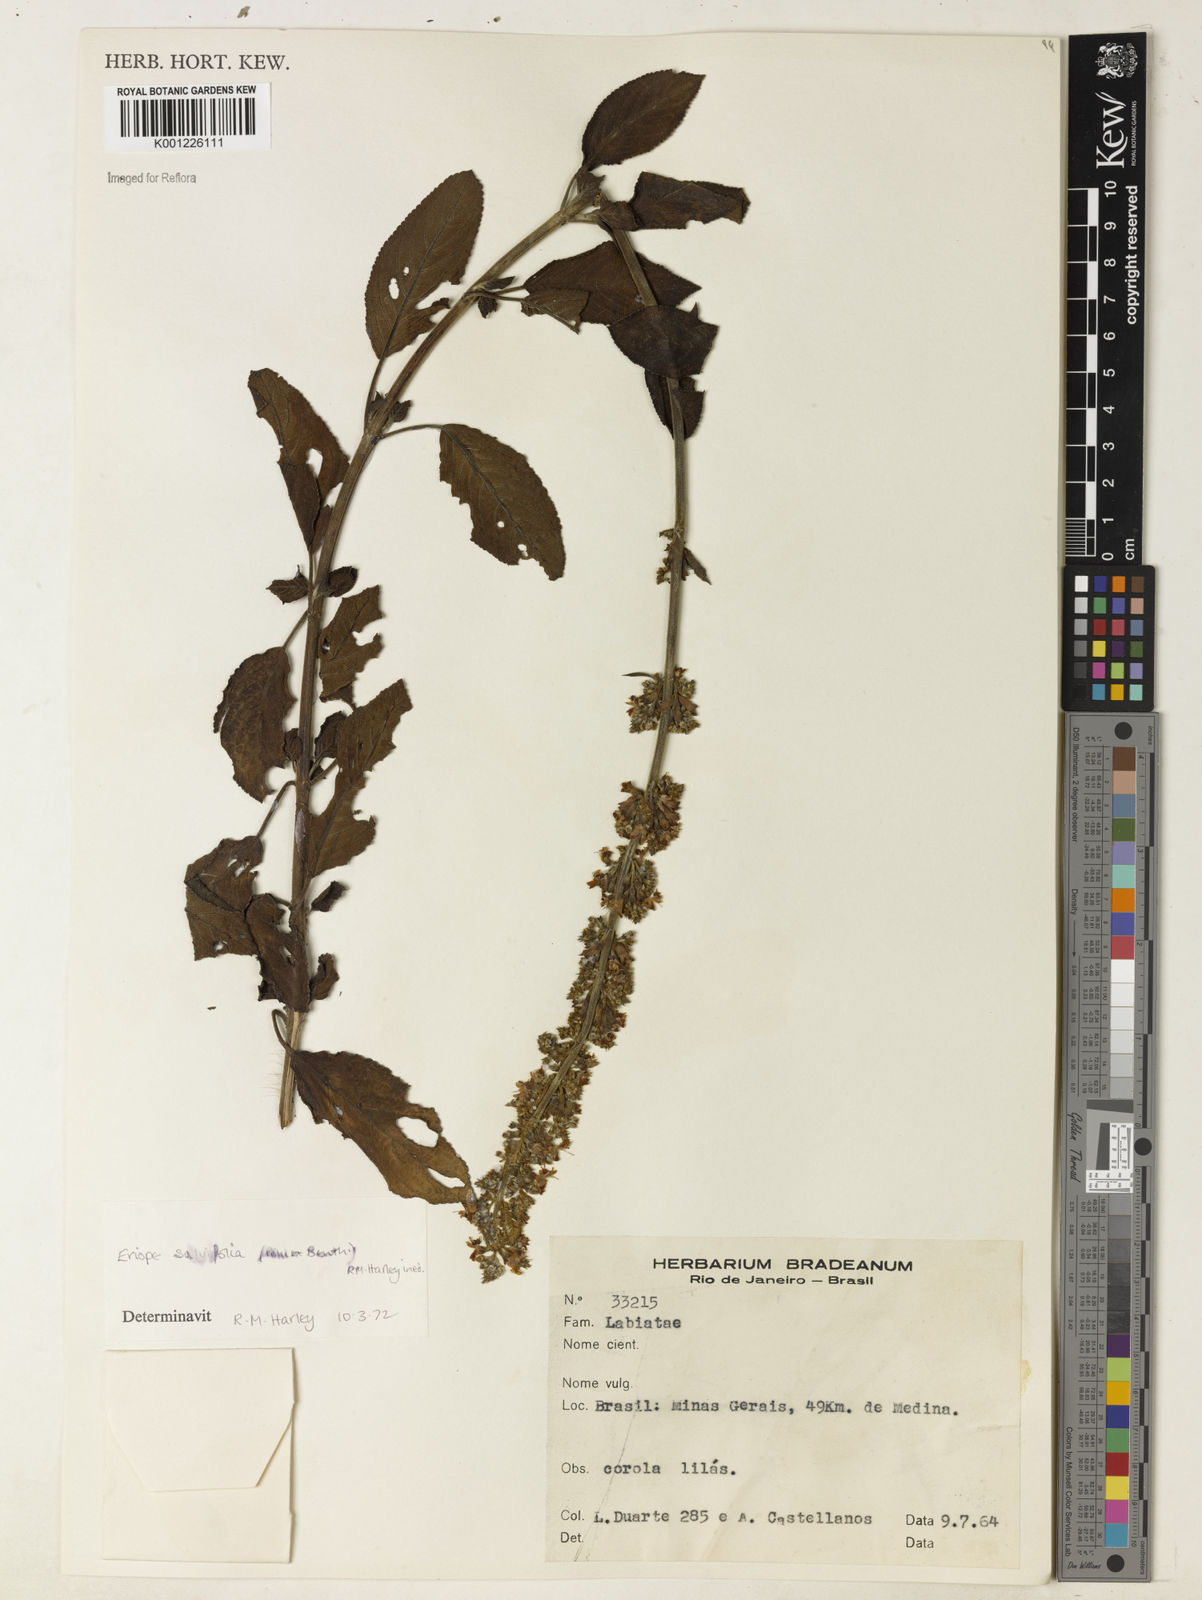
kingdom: Plantae
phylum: Tracheophyta
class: Magnoliopsida
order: Lamiales
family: Lamiaceae
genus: Eriope
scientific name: Eriope salviifolia
